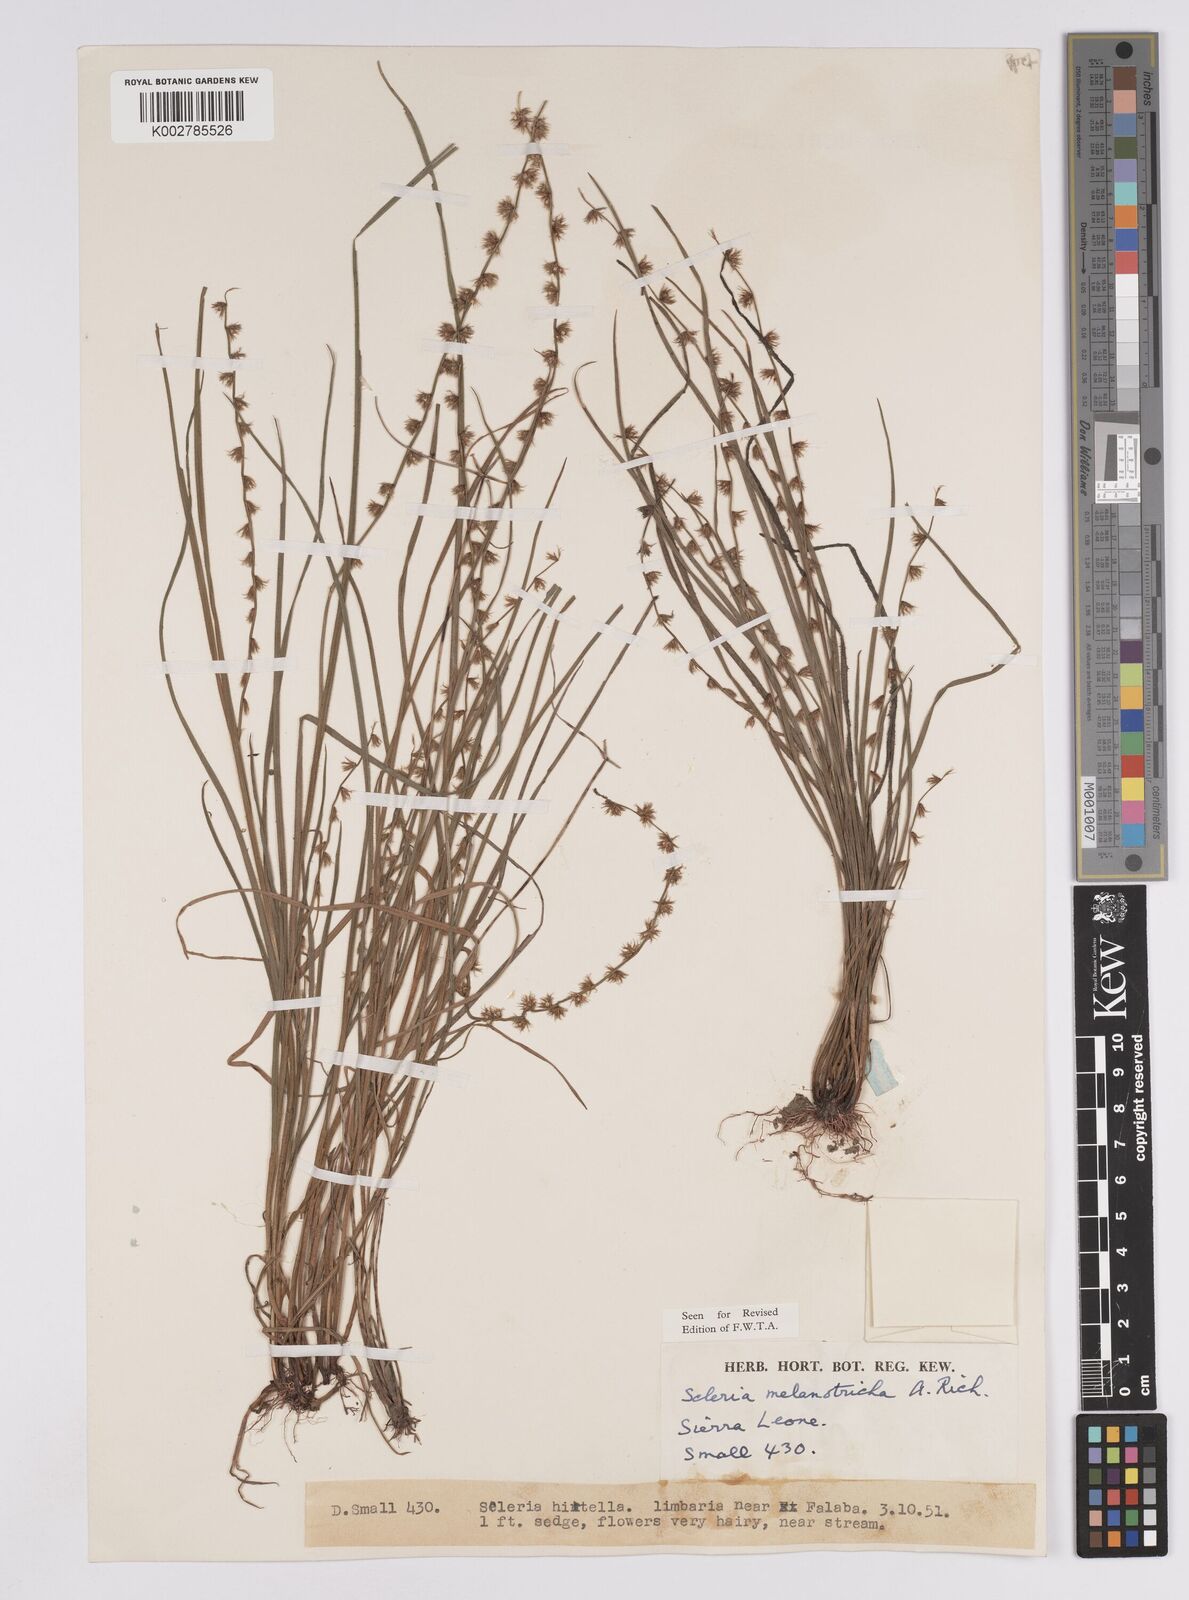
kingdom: Plantae
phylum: Tracheophyta
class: Liliopsida
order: Poales
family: Cyperaceae
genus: Scleria
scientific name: Scleria melanotricha
